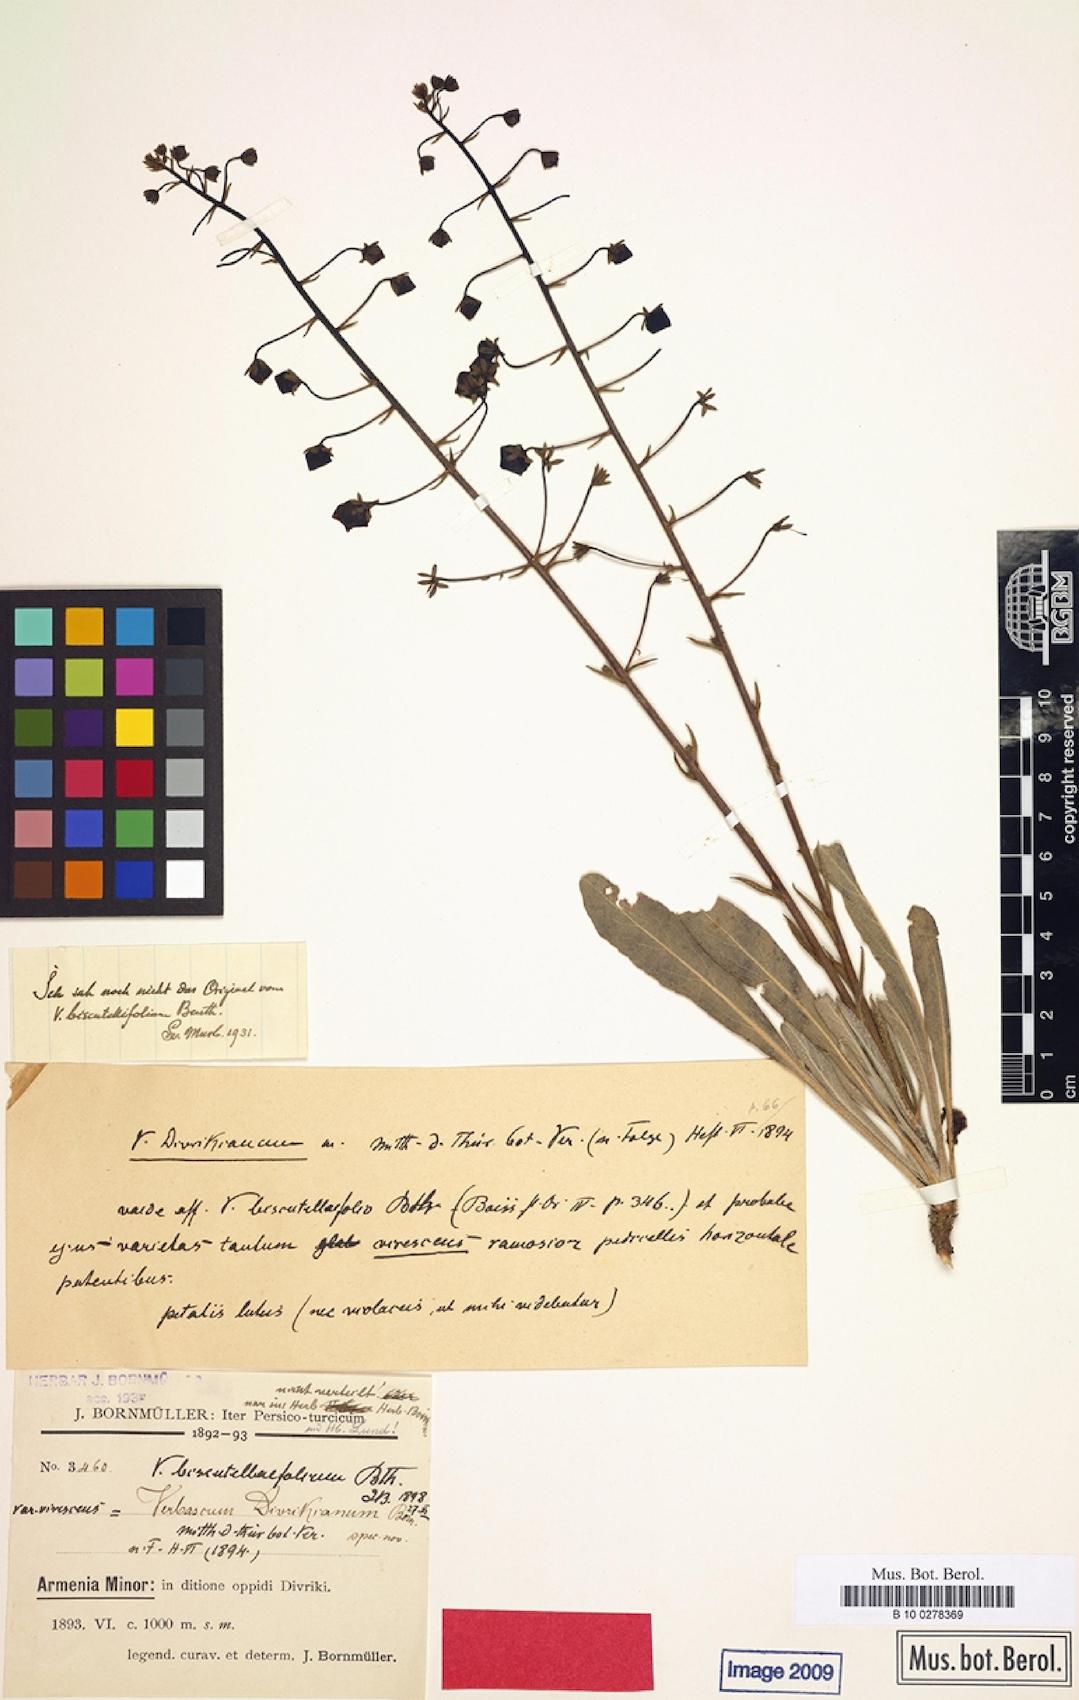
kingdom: Plantae
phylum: Tracheophyta
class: Magnoliopsida
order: Lamiales
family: Scrophulariaceae
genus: Verbascum
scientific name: Verbascum biscutellifolium
